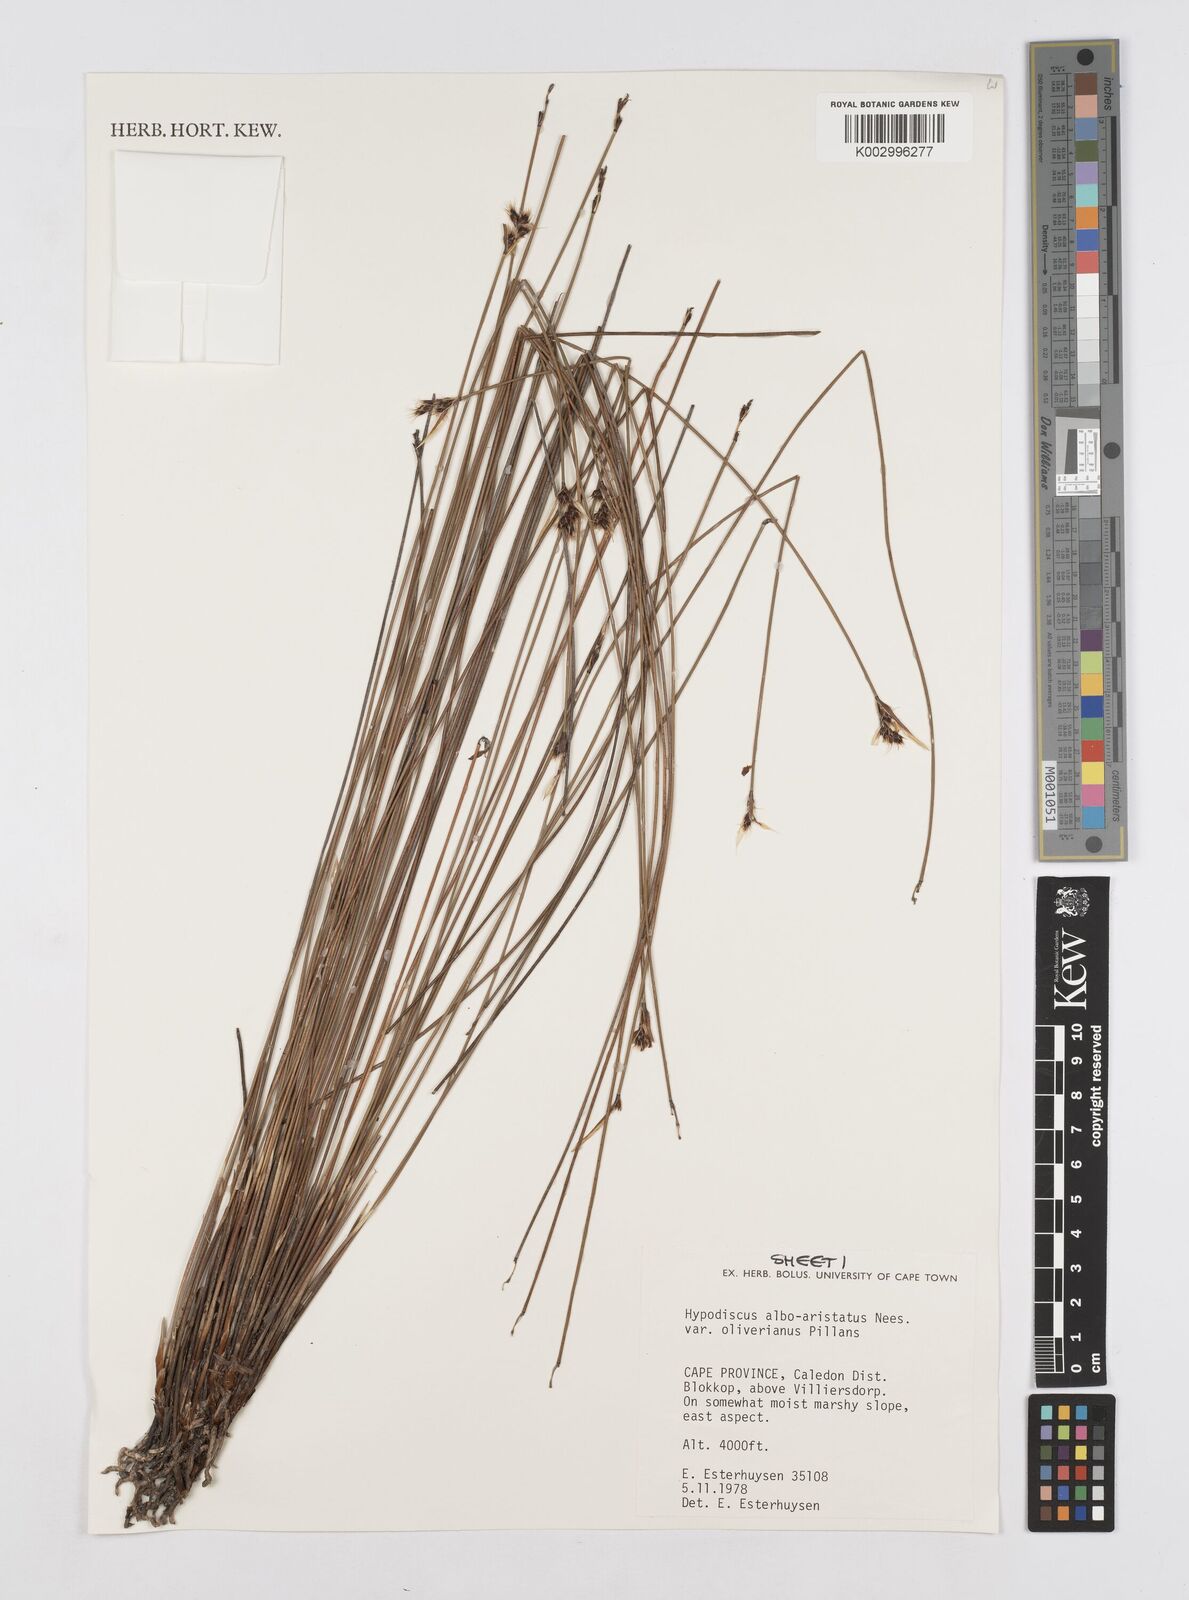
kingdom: Plantae
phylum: Tracheophyta
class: Liliopsida
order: Poales
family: Restionaceae
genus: Hypodiscus
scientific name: Hypodiscus alboaristatus
